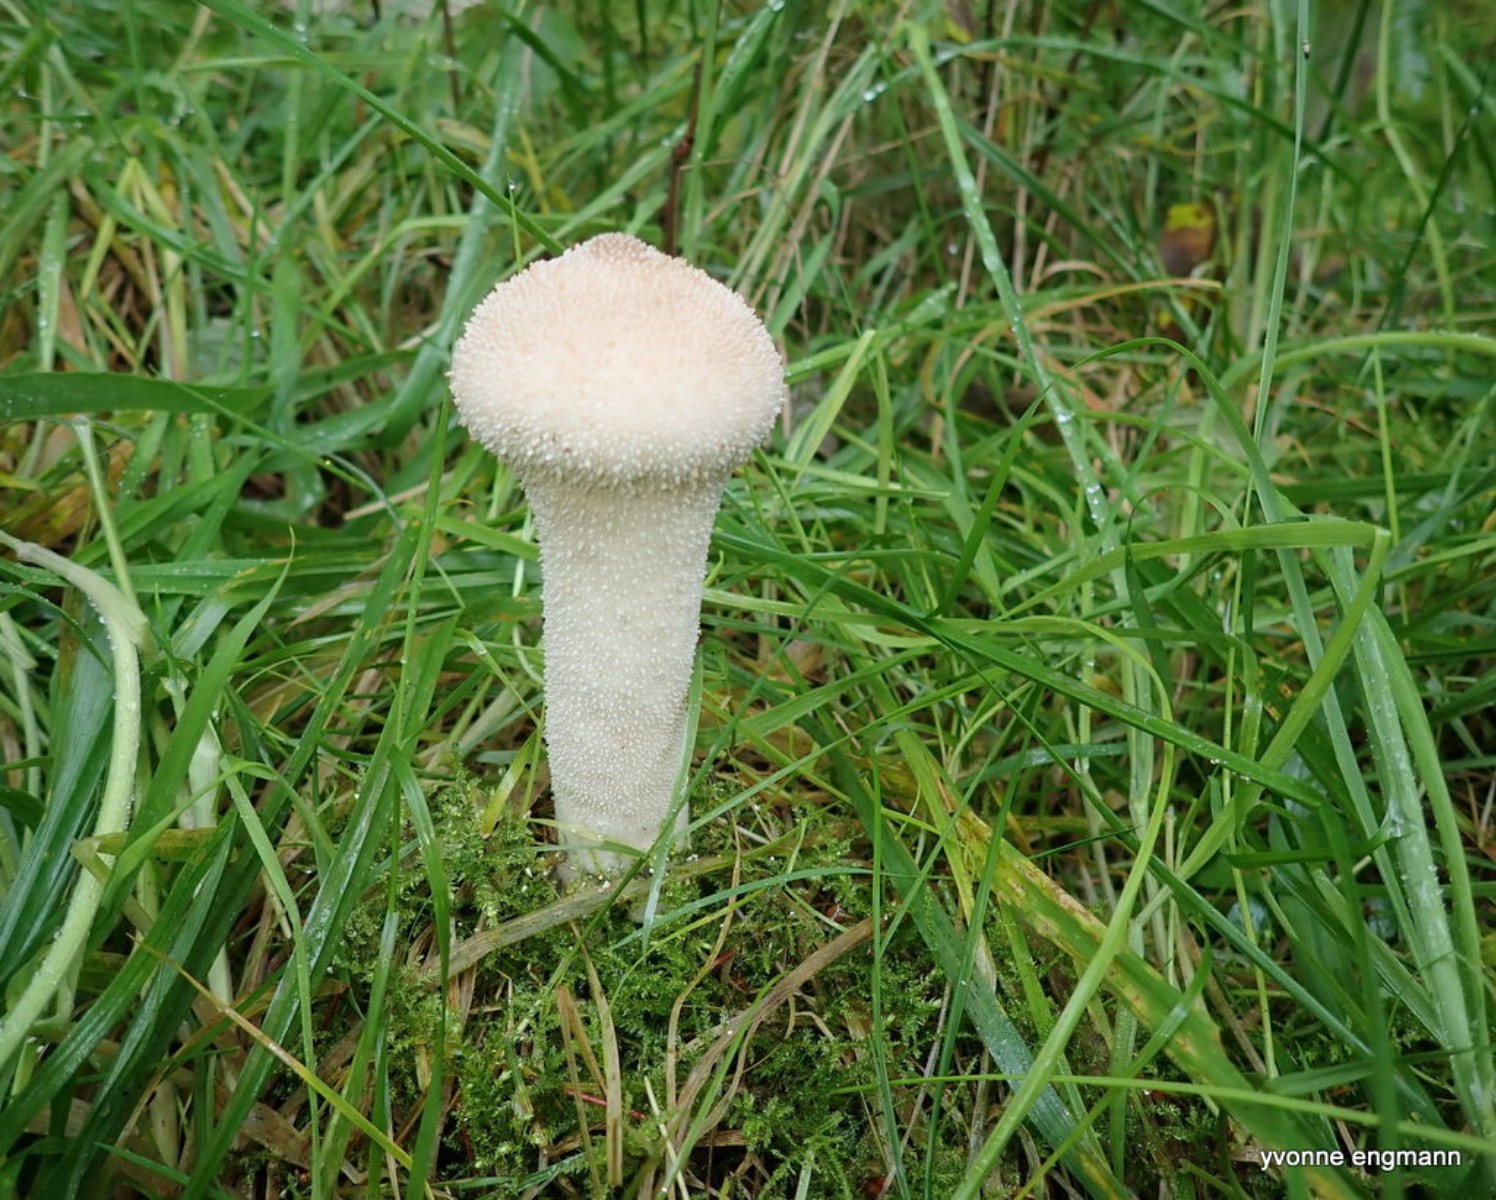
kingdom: Fungi
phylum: Basidiomycota
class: Agaricomycetes
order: Agaricales
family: Lycoperdaceae
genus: Lycoperdon
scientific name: Lycoperdon perlatum
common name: krystal-støvbold
